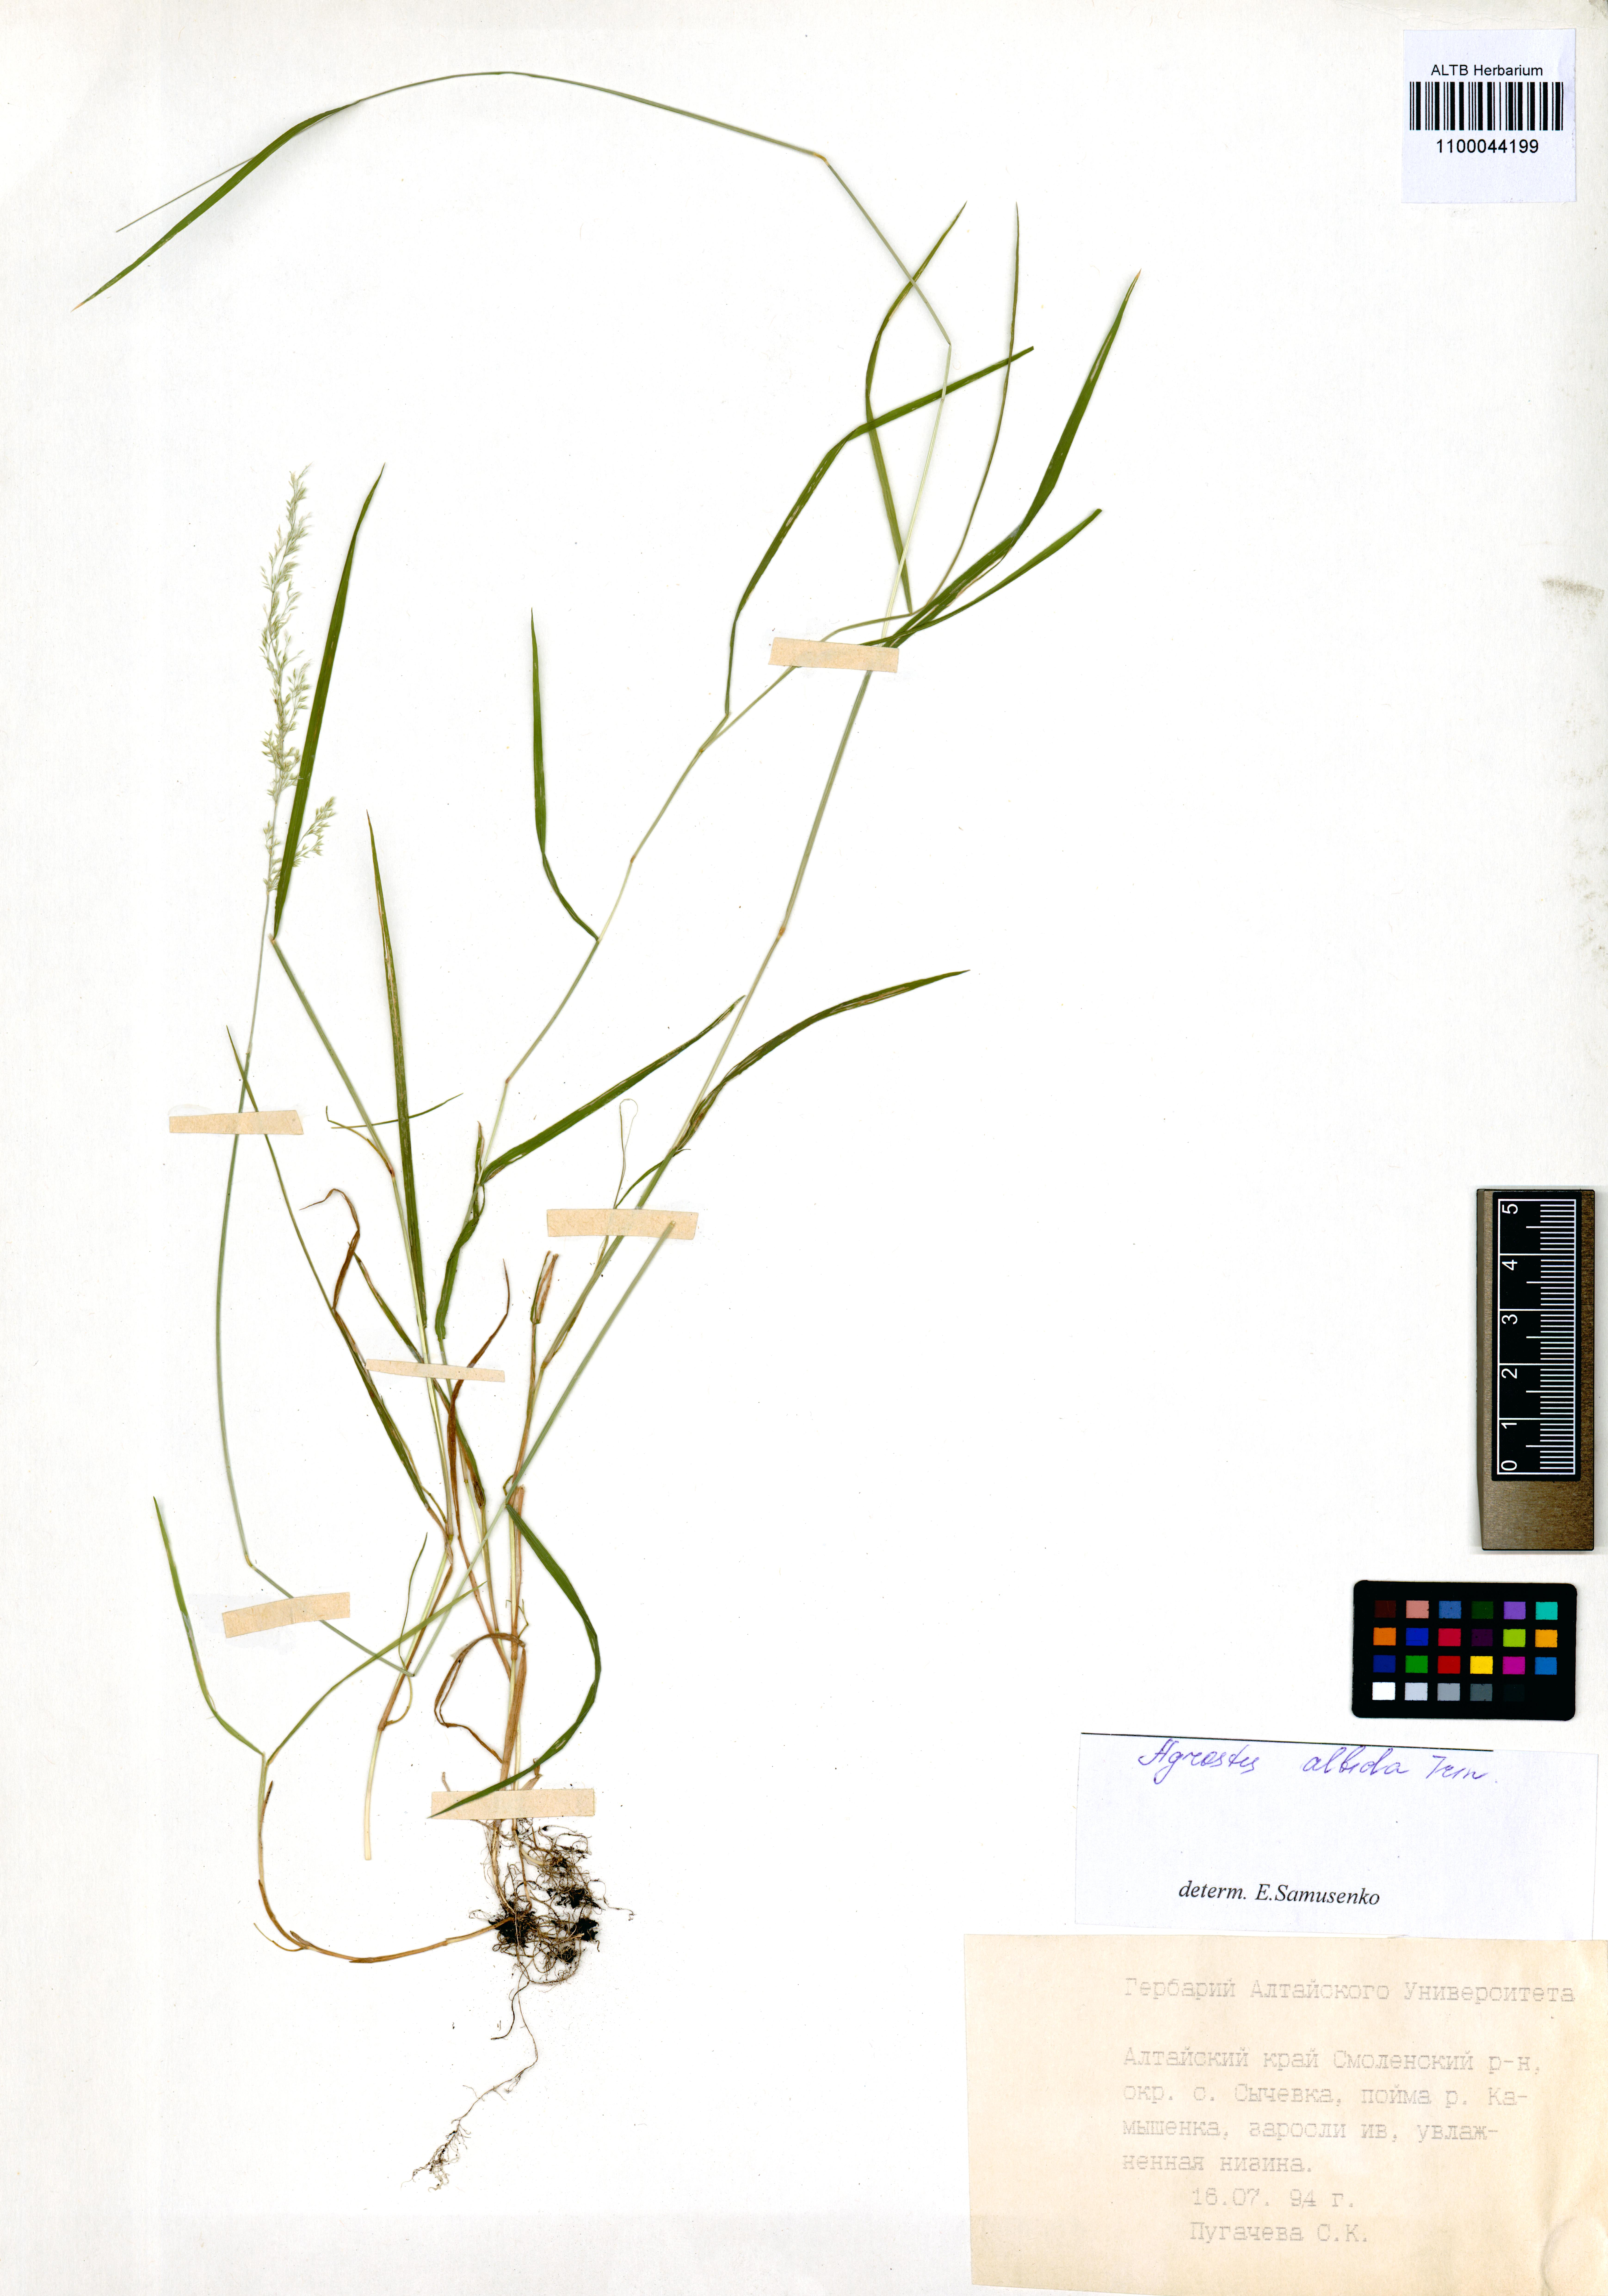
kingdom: Plantae
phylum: Tracheophyta
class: Liliopsida
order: Poales
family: Poaceae
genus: Agrostis
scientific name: Agrostis stolonifera
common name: Creeping bentgrass
